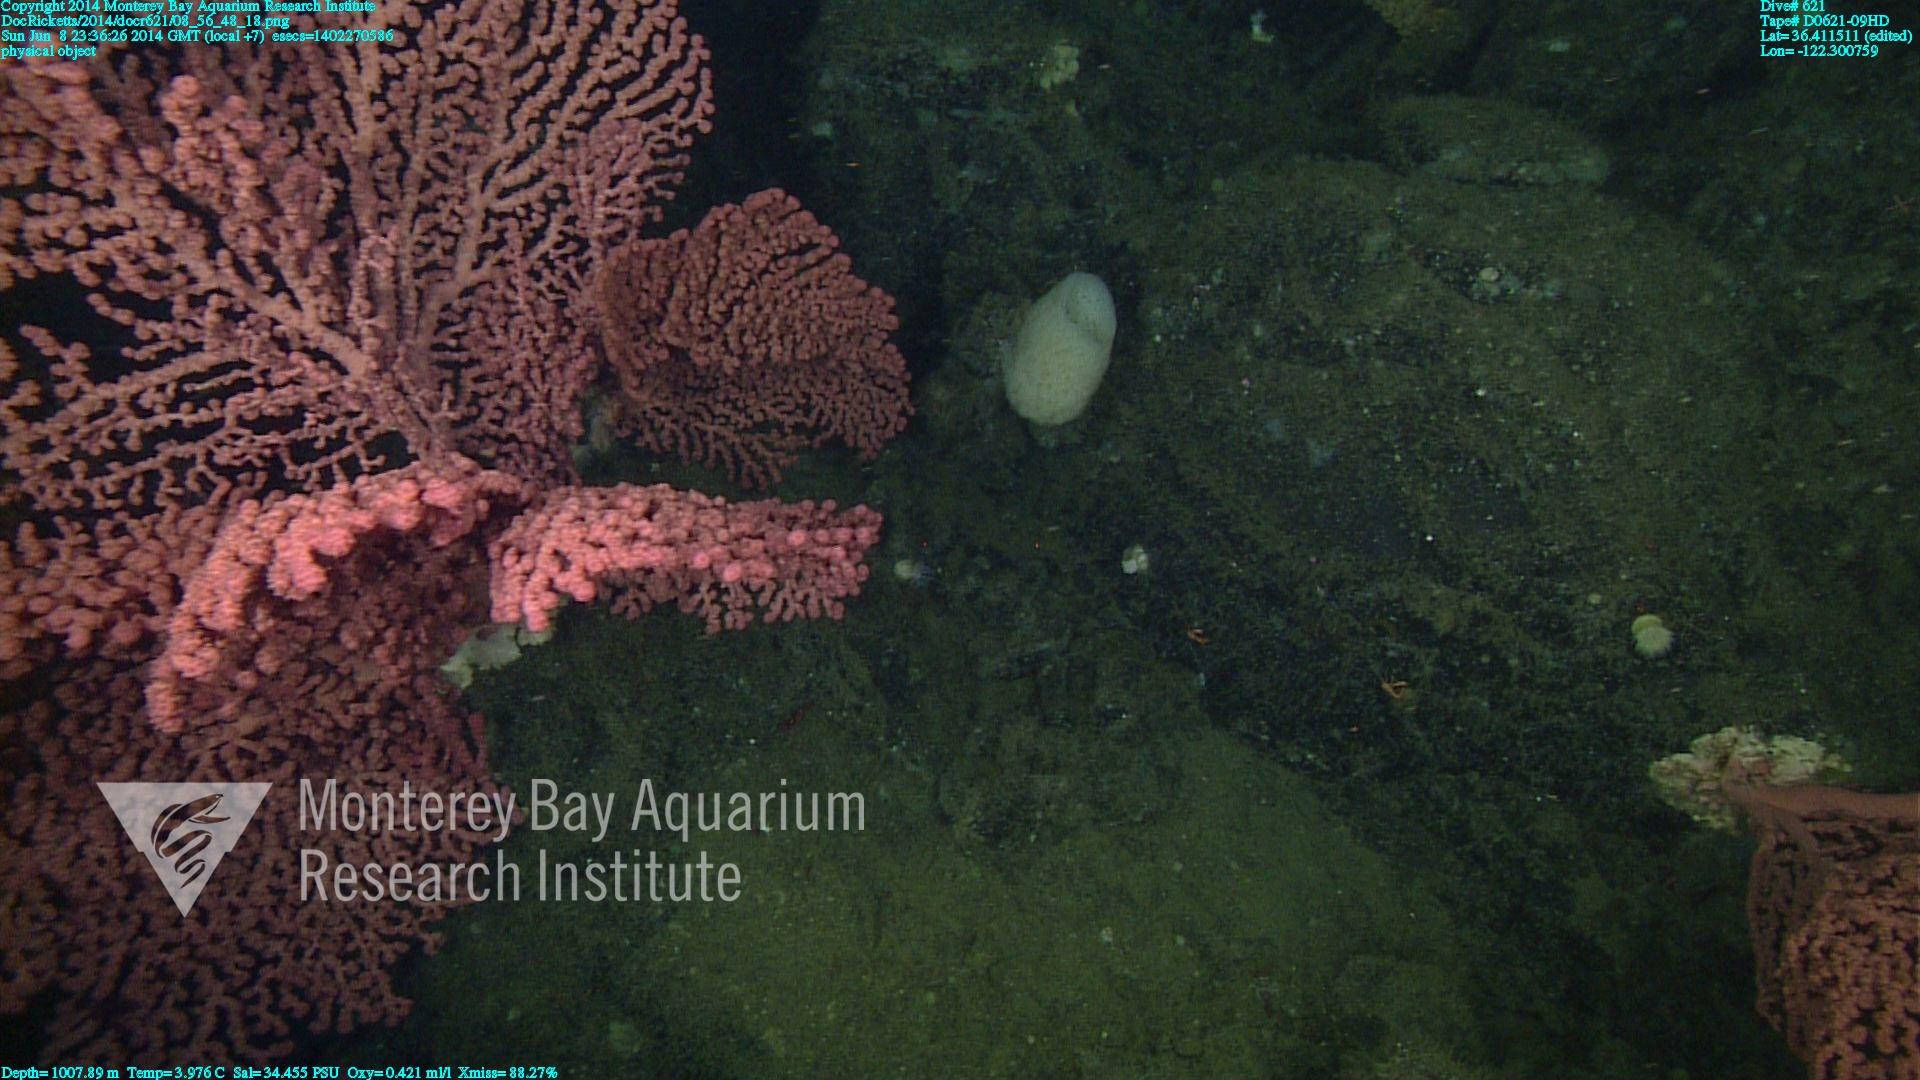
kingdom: Animalia
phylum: Cnidaria
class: Anthozoa
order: Scleralcyonacea
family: Coralliidae
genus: Paragorgia
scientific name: Paragorgia arborea
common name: Bubble gum coral
